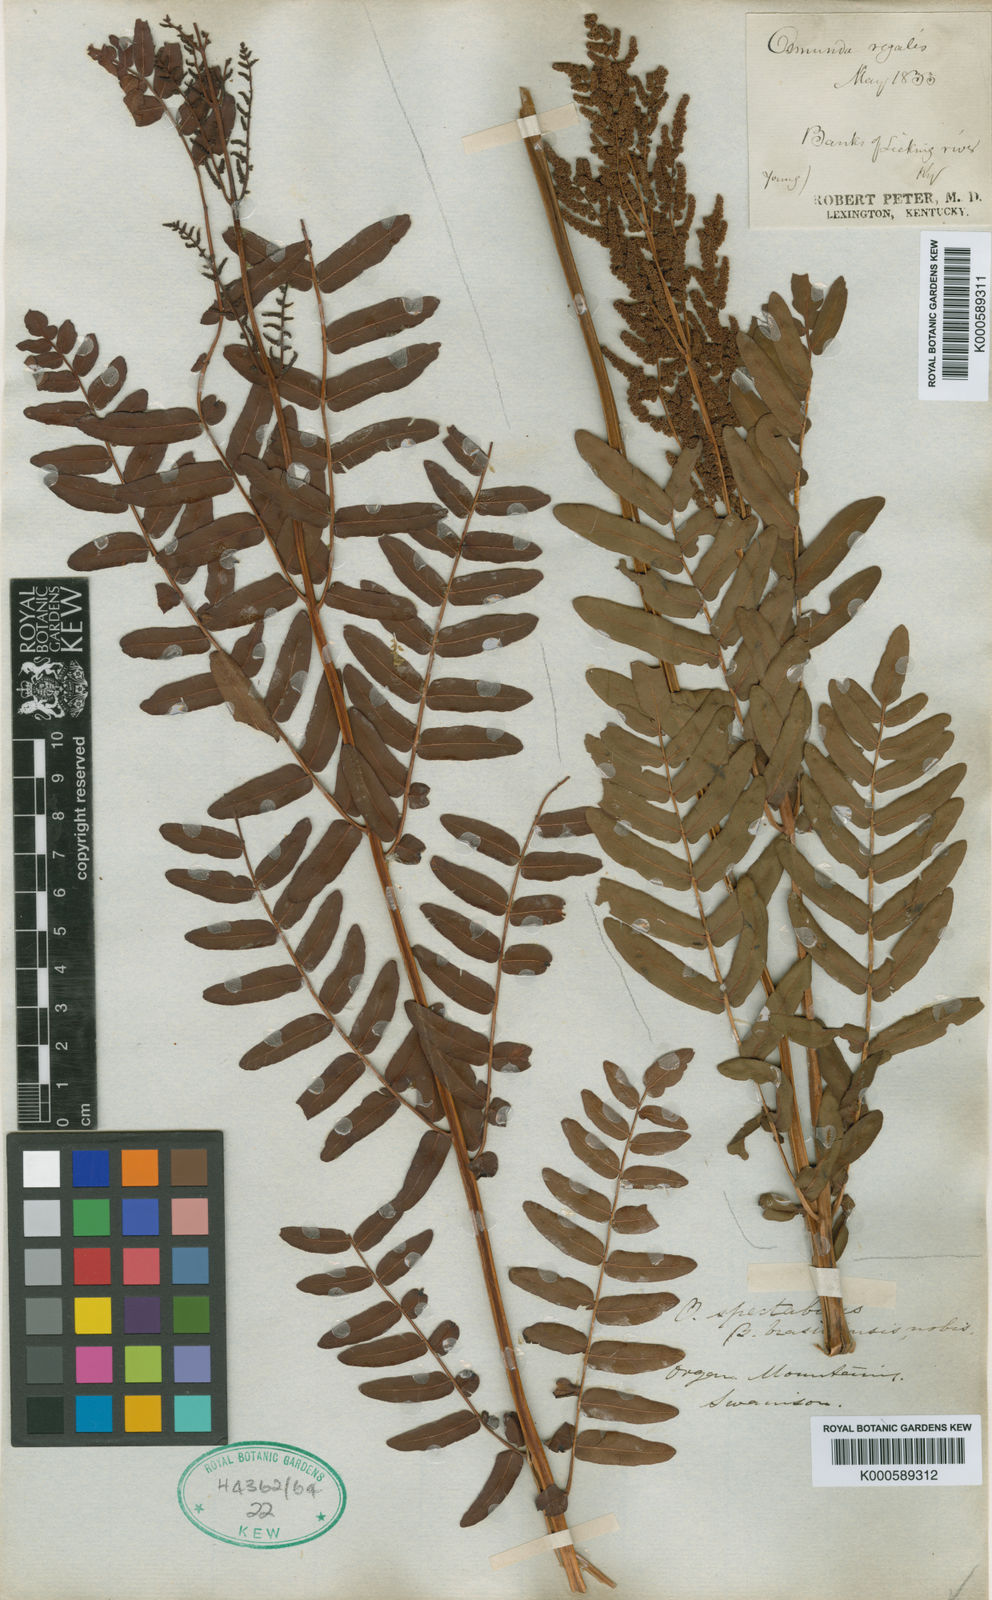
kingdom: Plantae
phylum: Tracheophyta
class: Polypodiopsida
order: Osmundales
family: Osmundaceae
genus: Osmunda
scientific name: Osmunda spectabilis
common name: American royal fern
